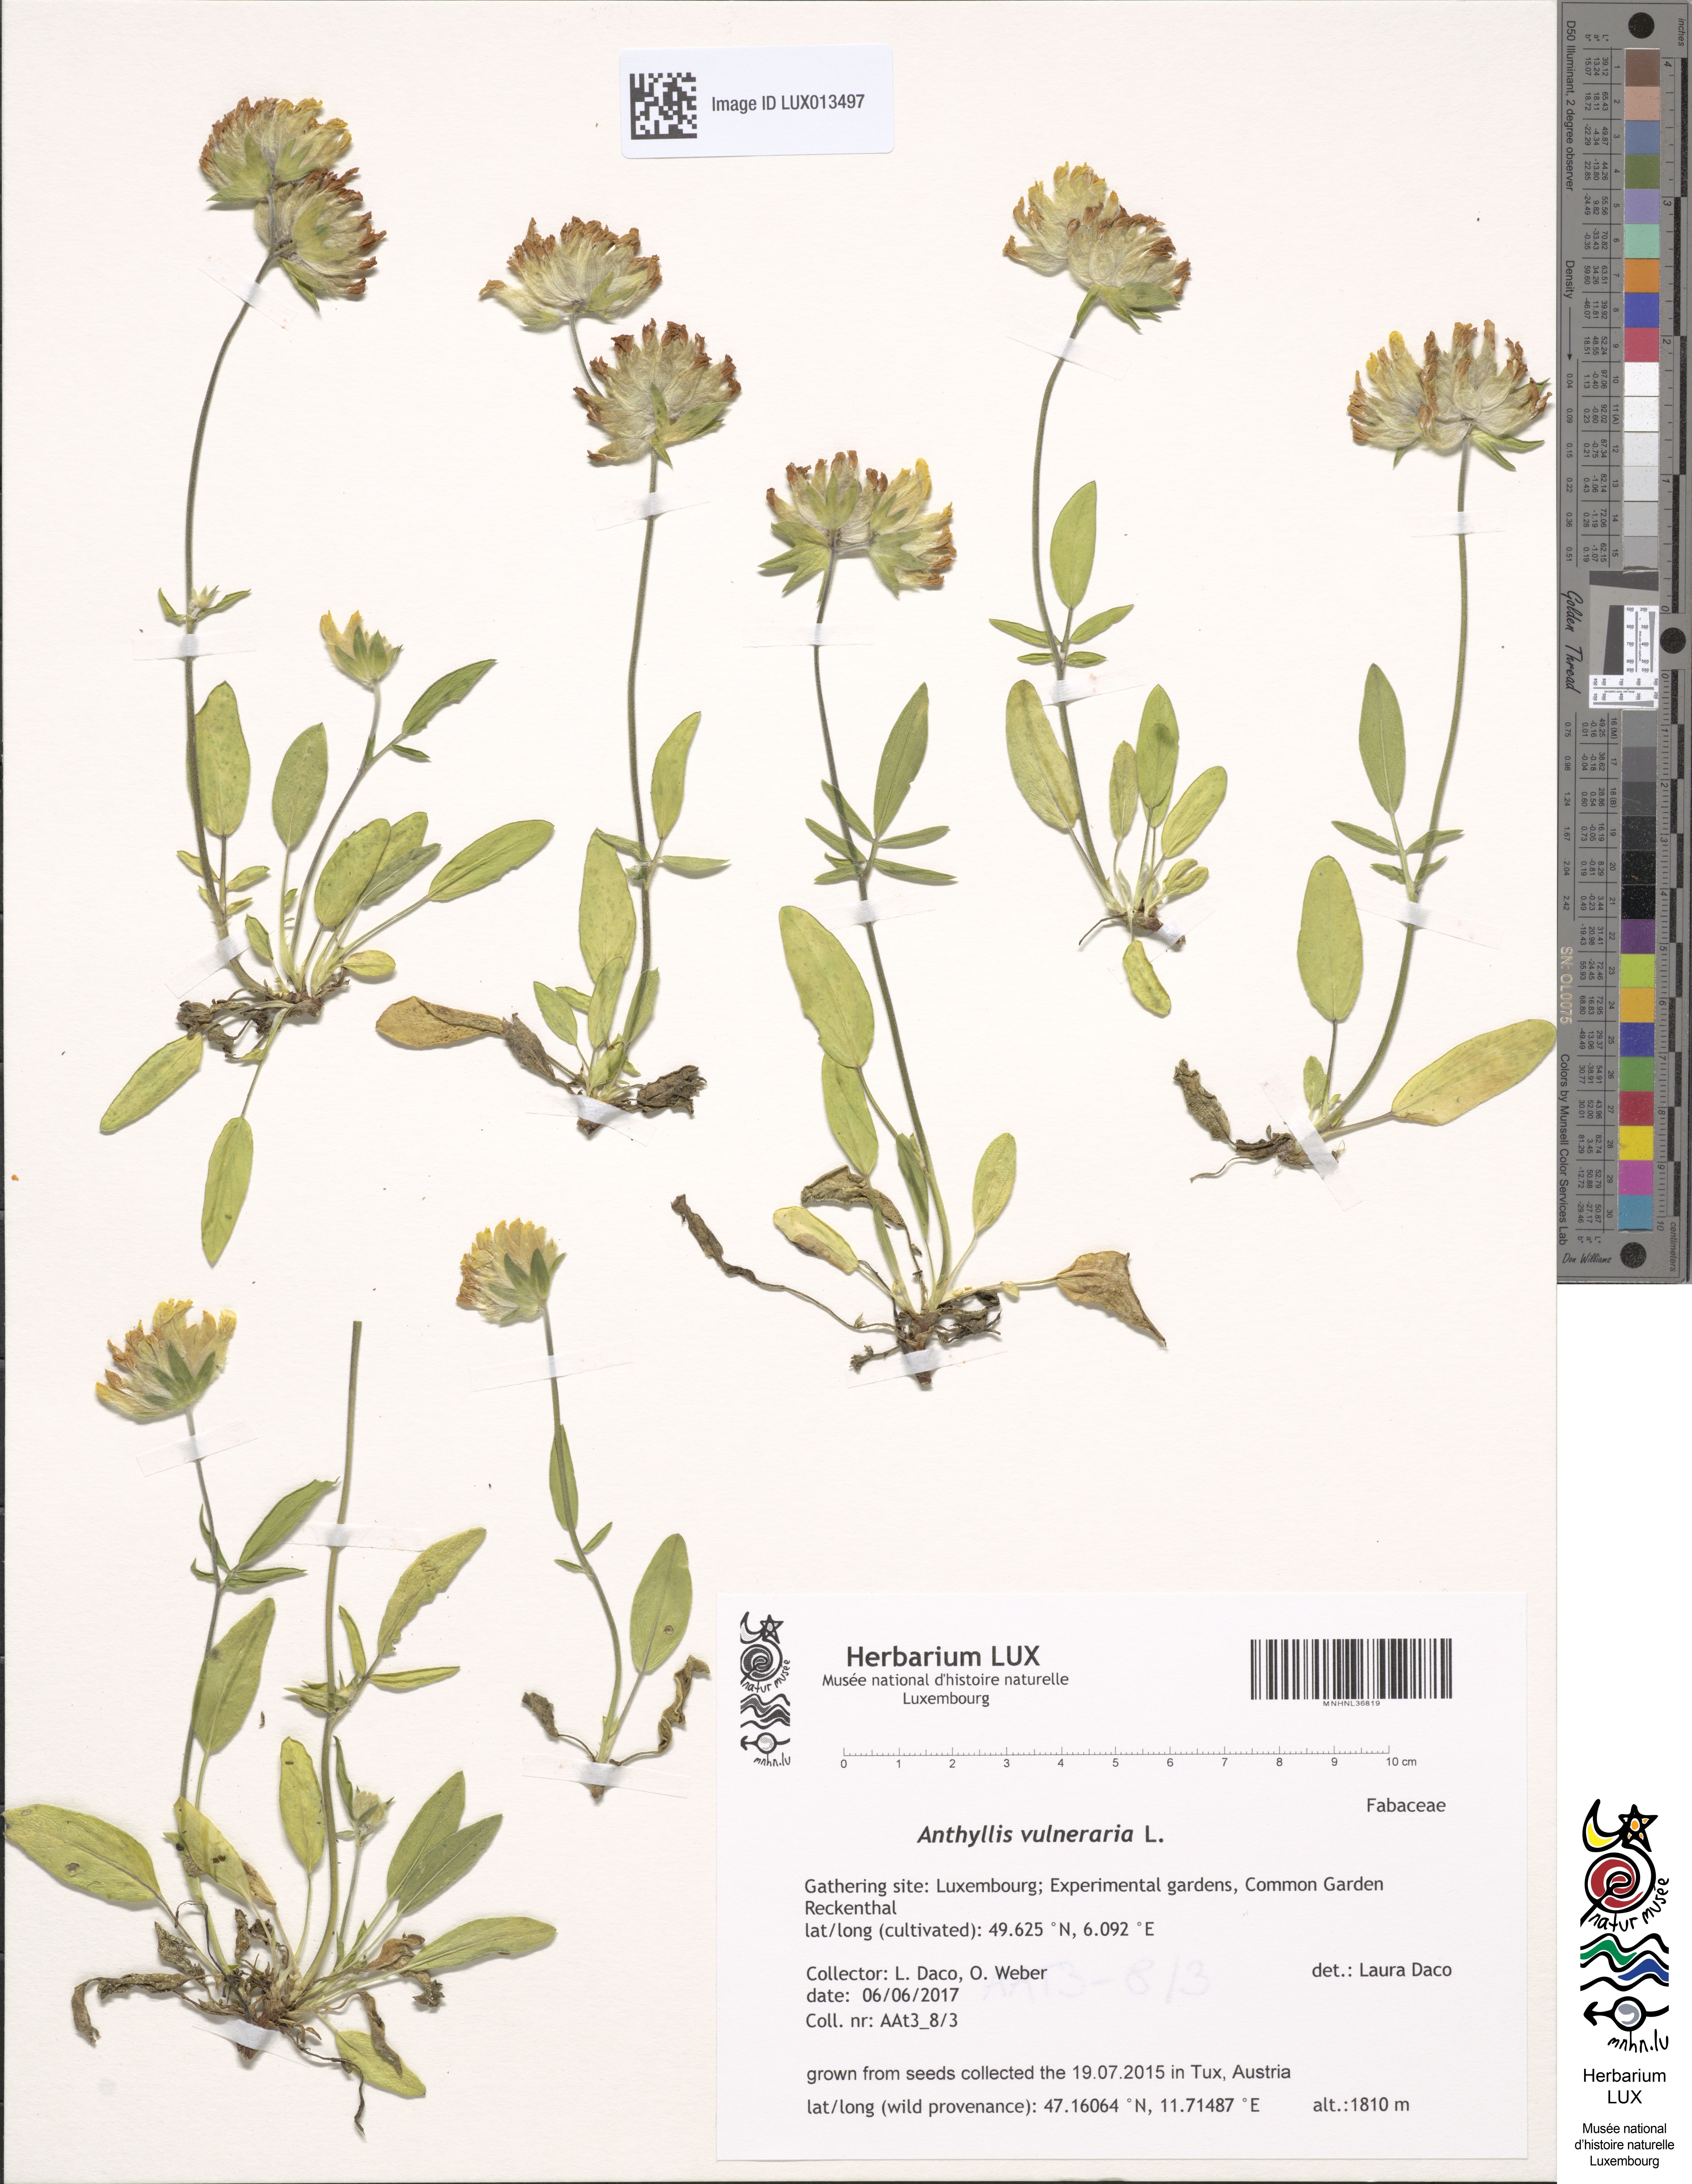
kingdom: Plantae
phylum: Tracheophyta
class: Magnoliopsida
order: Fabales
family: Fabaceae
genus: Anthyllis
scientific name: Anthyllis vulneraria
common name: Kidney vetch
